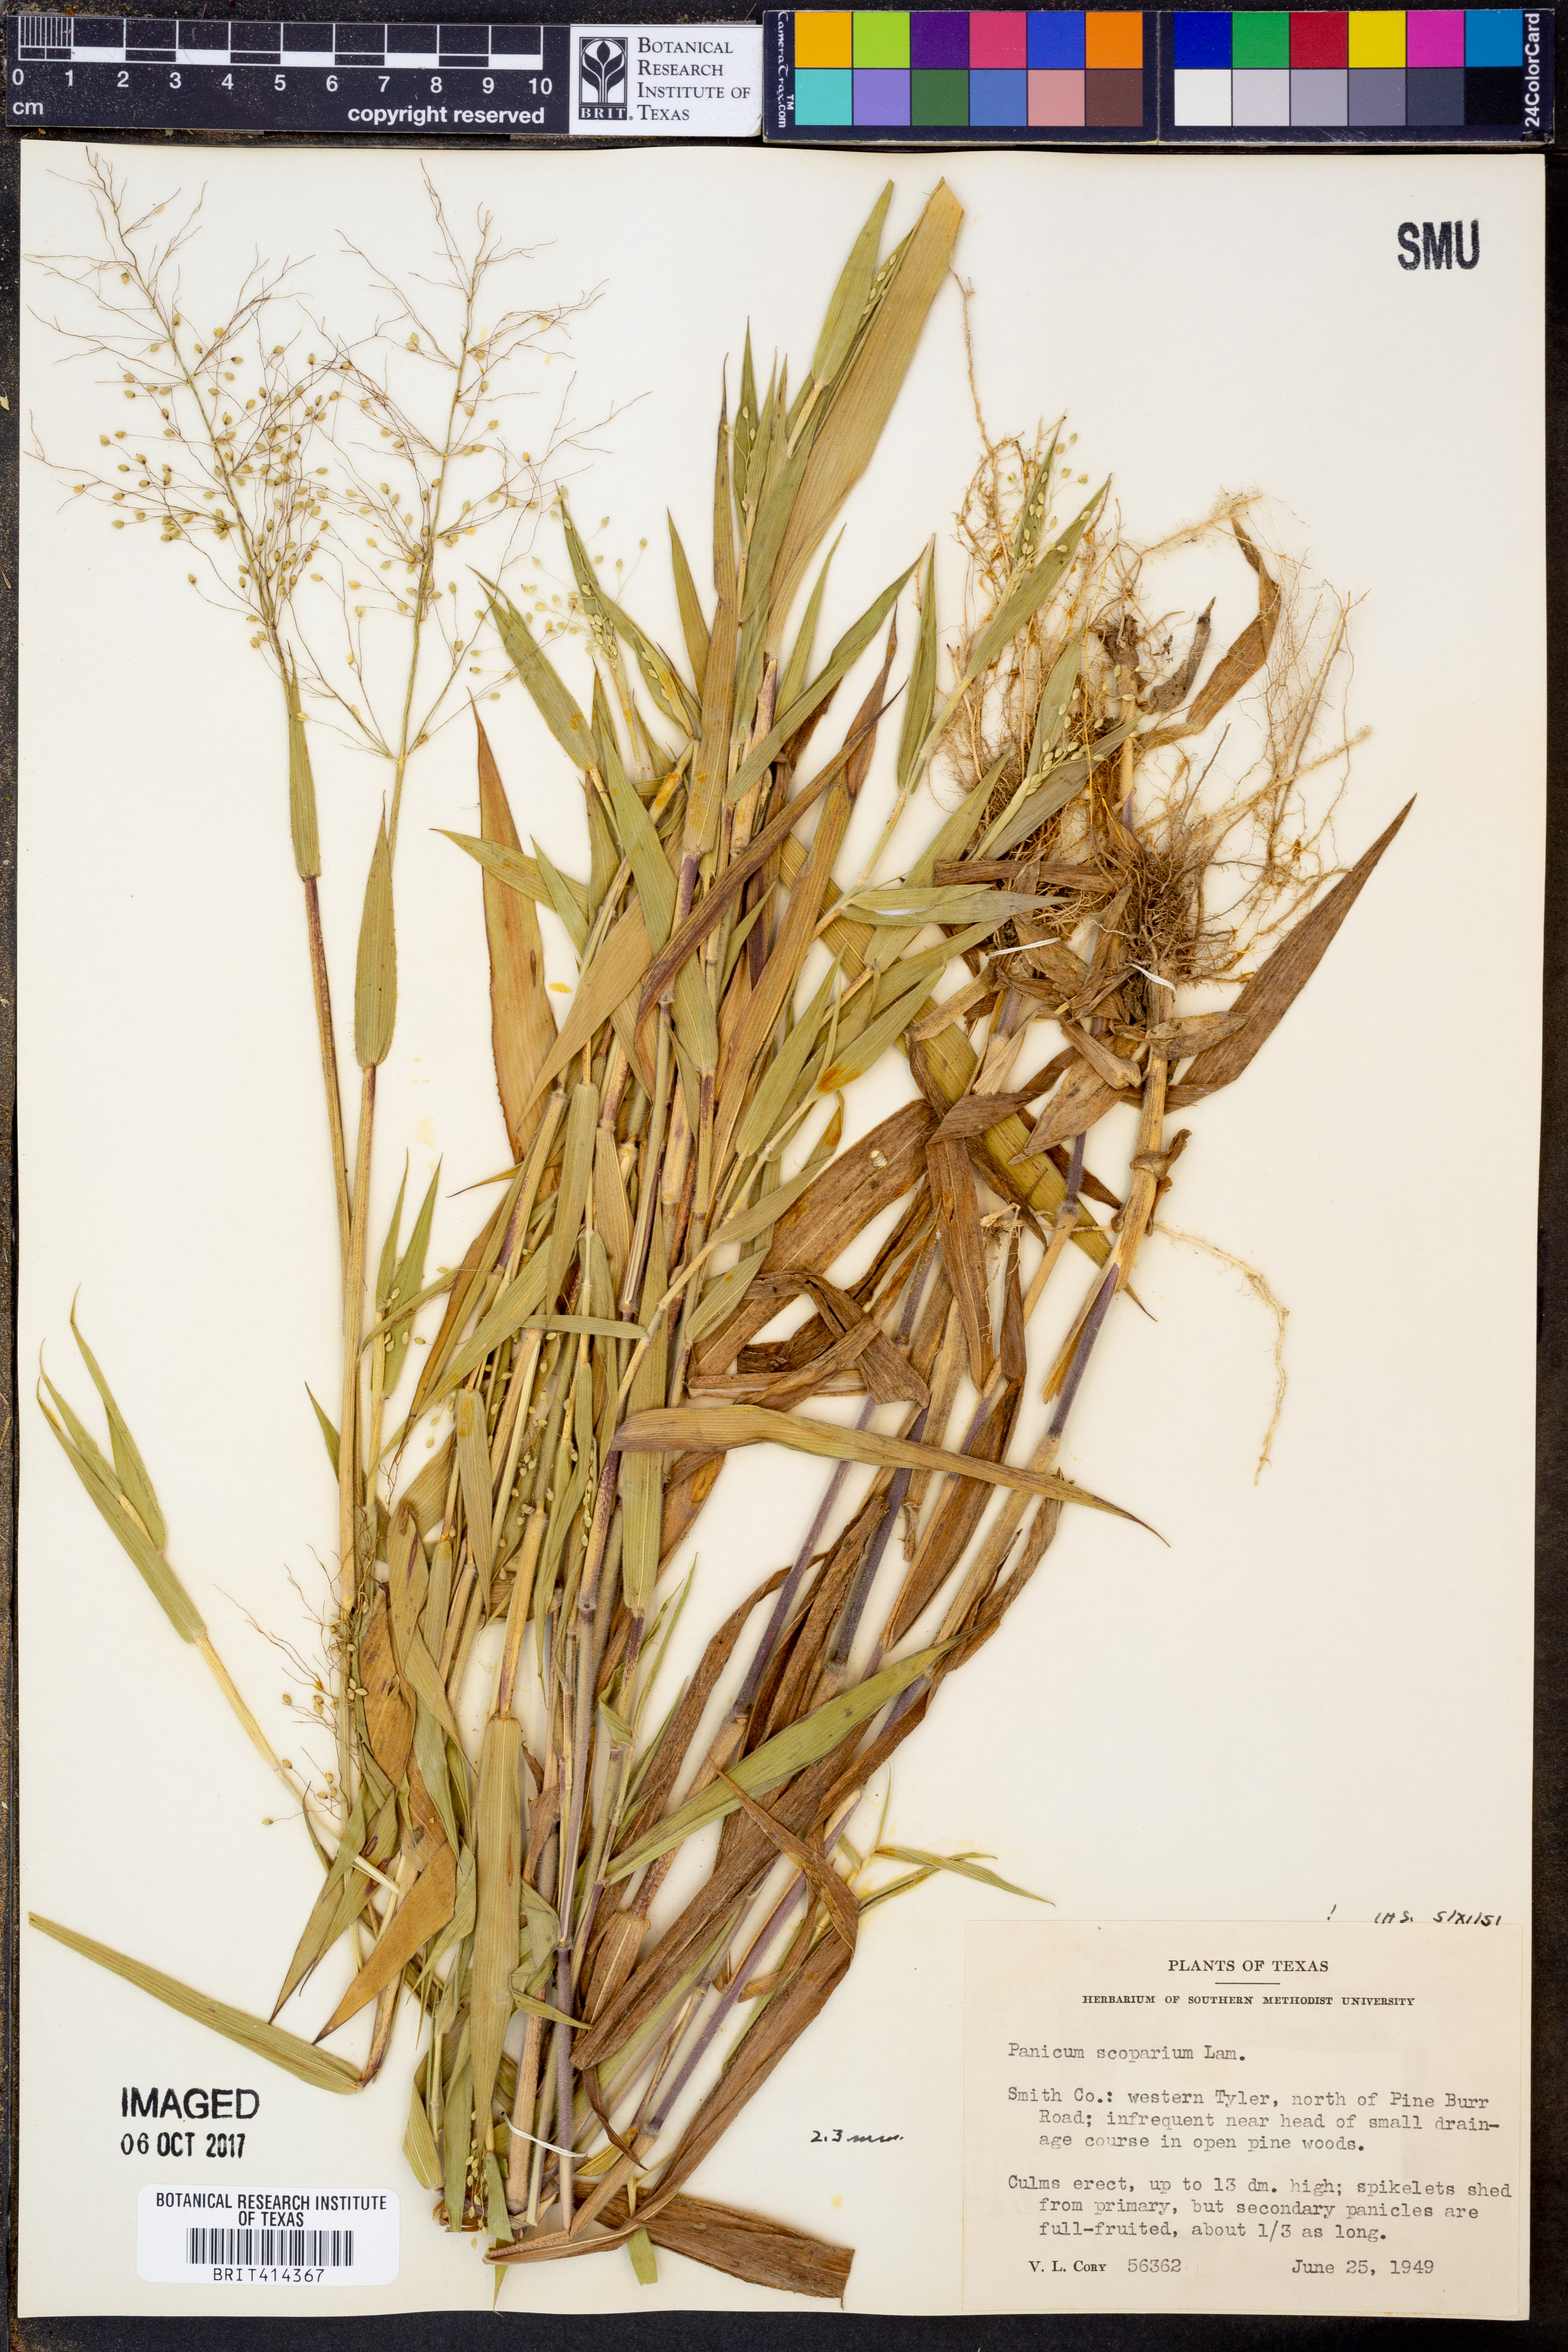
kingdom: Plantae
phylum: Tracheophyta
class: Liliopsida
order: Poales
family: Poaceae
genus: Dichanthelium
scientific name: Dichanthelium scribnerianum
